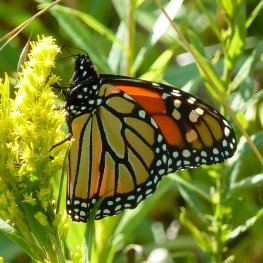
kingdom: Animalia
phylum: Arthropoda
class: Insecta
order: Lepidoptera
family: Nymphalidae
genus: Danaus
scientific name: Danaus plexippus
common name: Monarch
